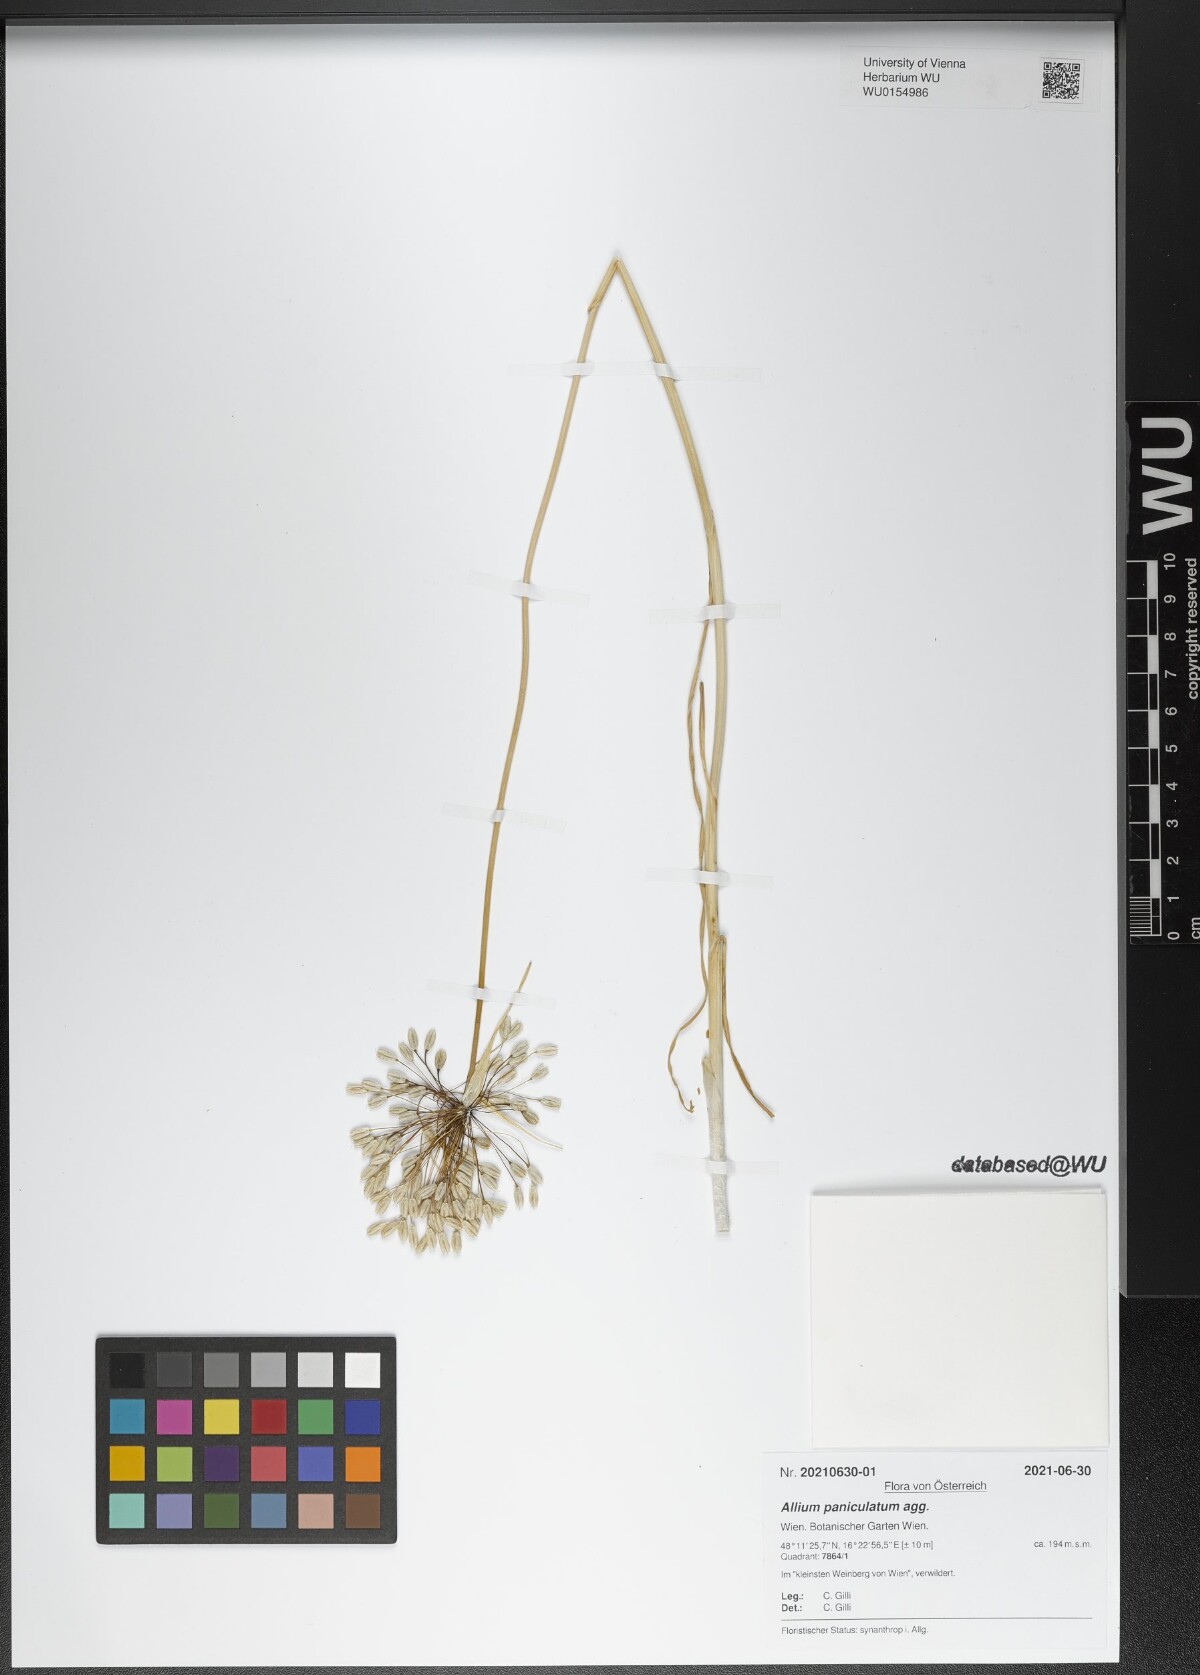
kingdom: Plantae
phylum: Tracheophyta
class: Liliopsida
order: Asparagales
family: Amaryllidaceae
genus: Allium
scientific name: Allium paniculatum
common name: Pale garlic
